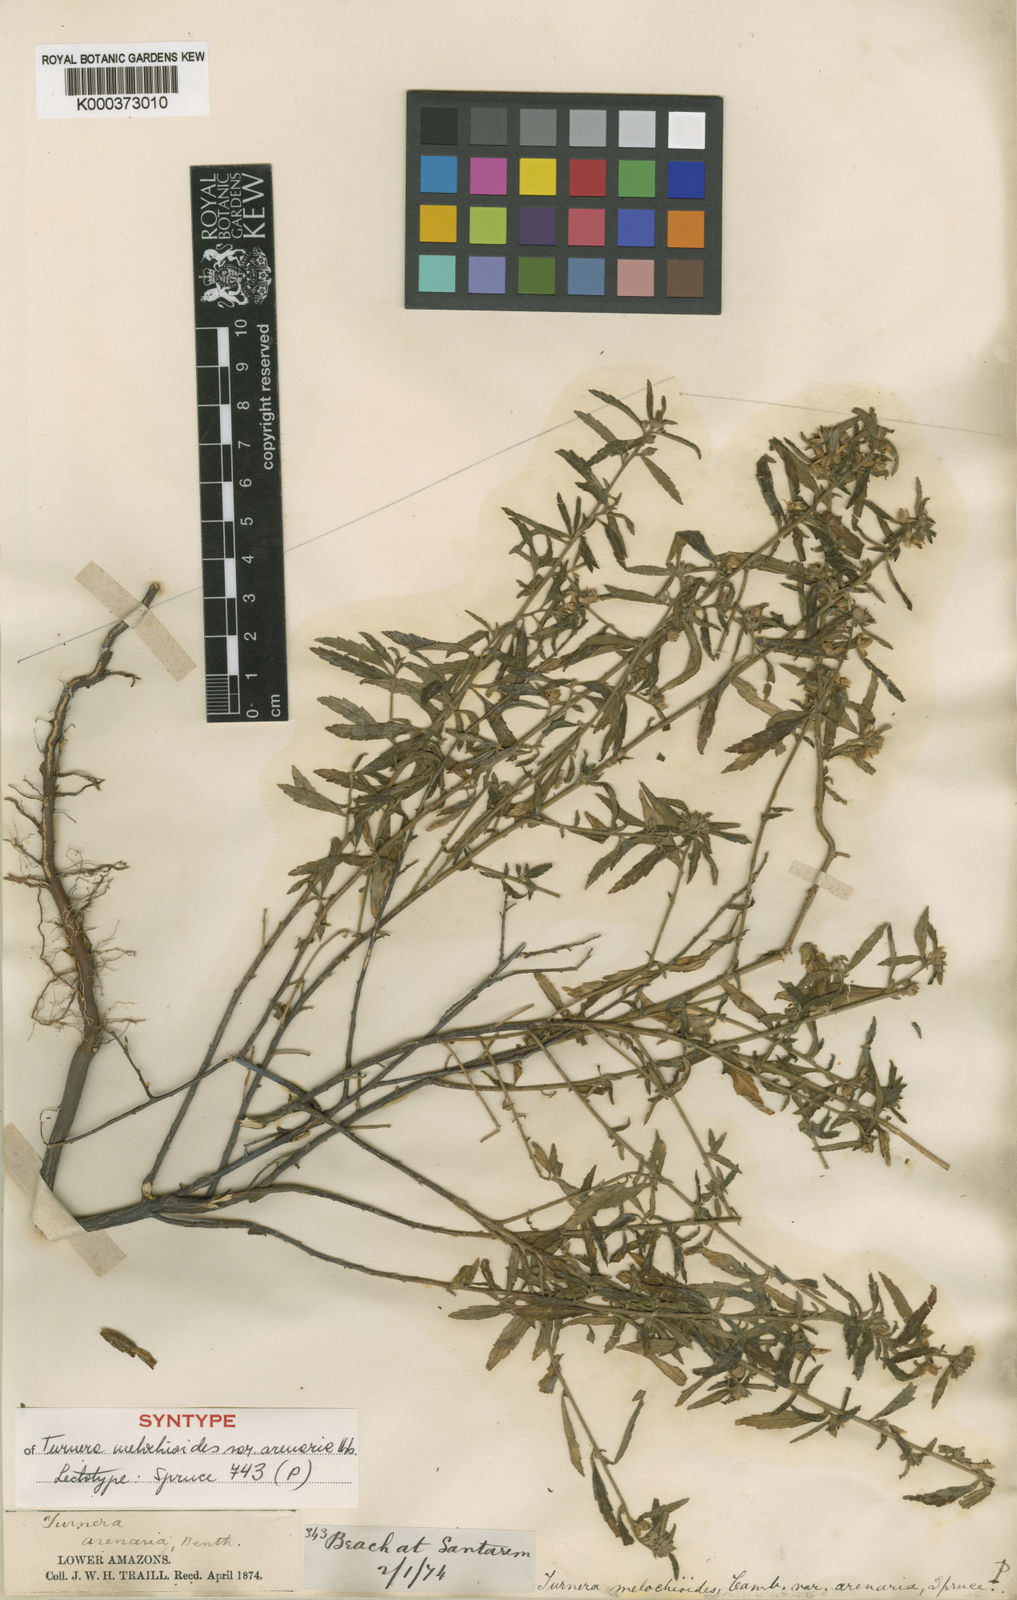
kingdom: Plantae
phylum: Tracheophyta
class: Magnoliopsida
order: Malpighiales
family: Turneraceae
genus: Turnera
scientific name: Turnera arenaria
